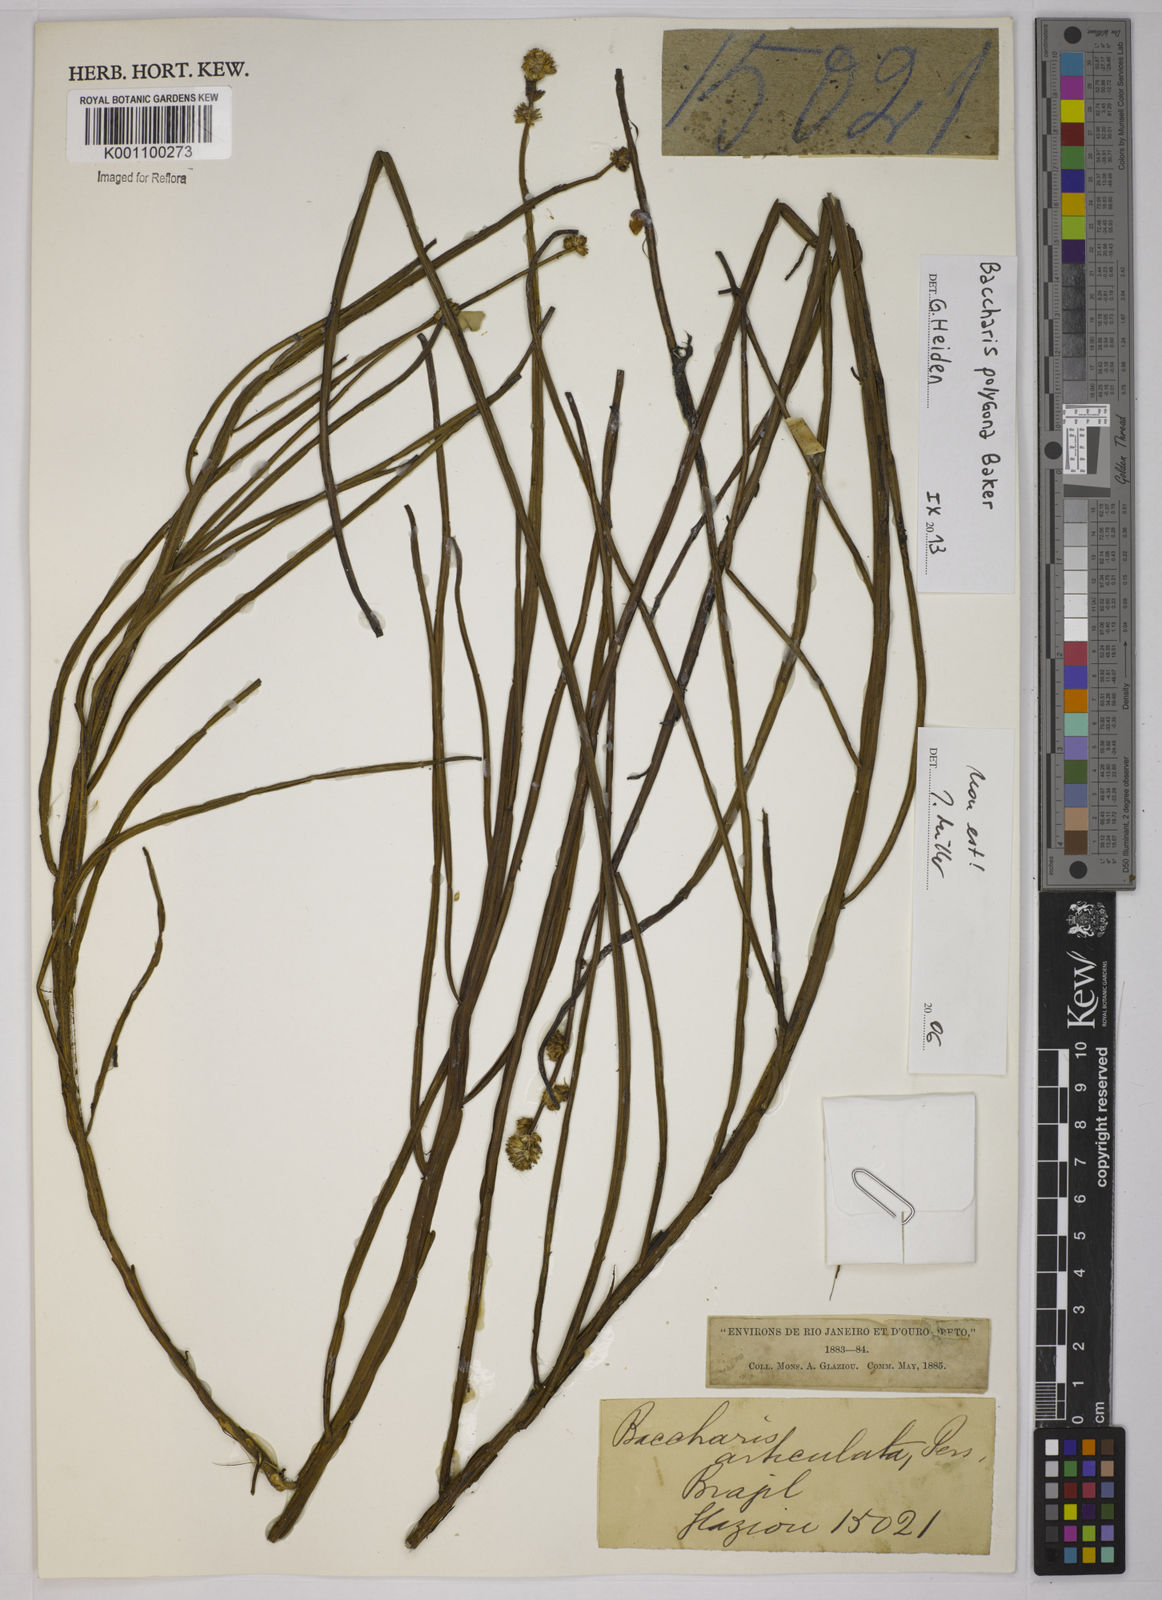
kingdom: Plantae
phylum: Tracheophyta
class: Magnoliopsida
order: Asterales
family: Asteraceae
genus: Baccharis
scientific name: Baccharis
